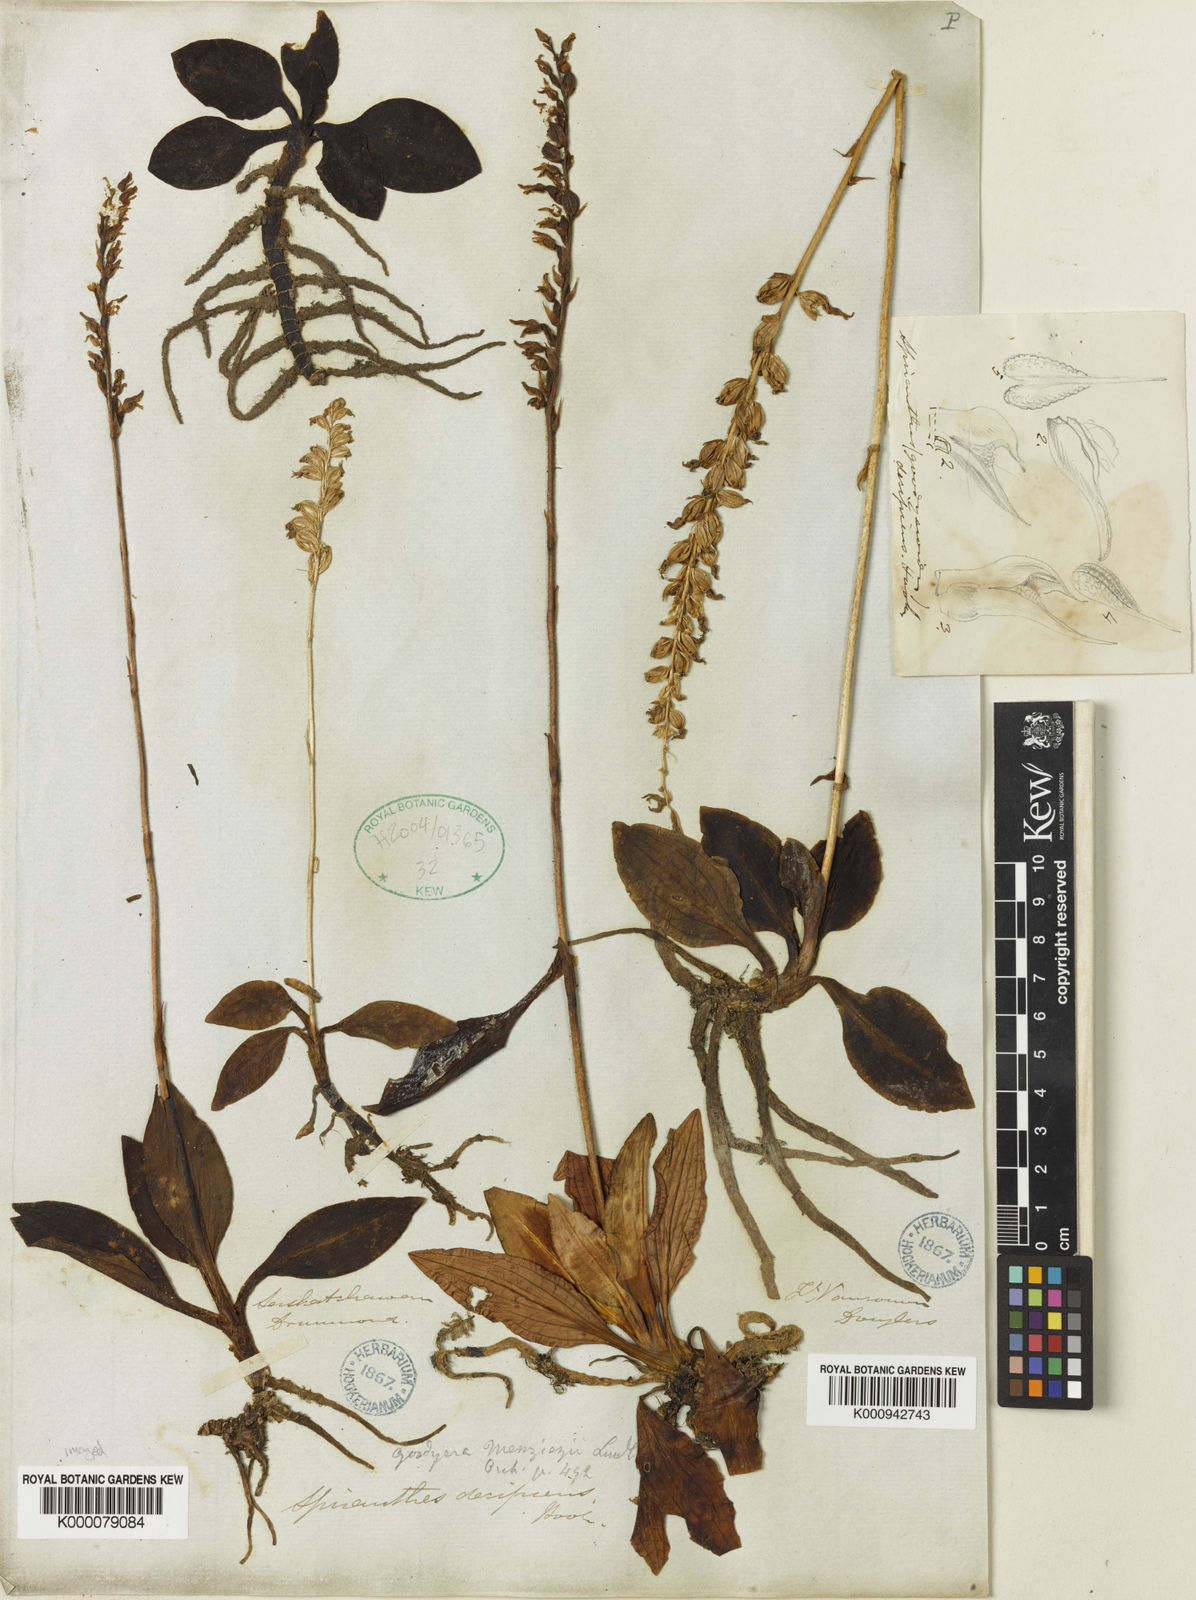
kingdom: Plantae
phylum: Tracheophyta
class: Liliopsida
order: Asparagales
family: Orchidaceae
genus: Goodyera
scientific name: Goodyera oblongifolia
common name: Giant rattlesnake-plantain
